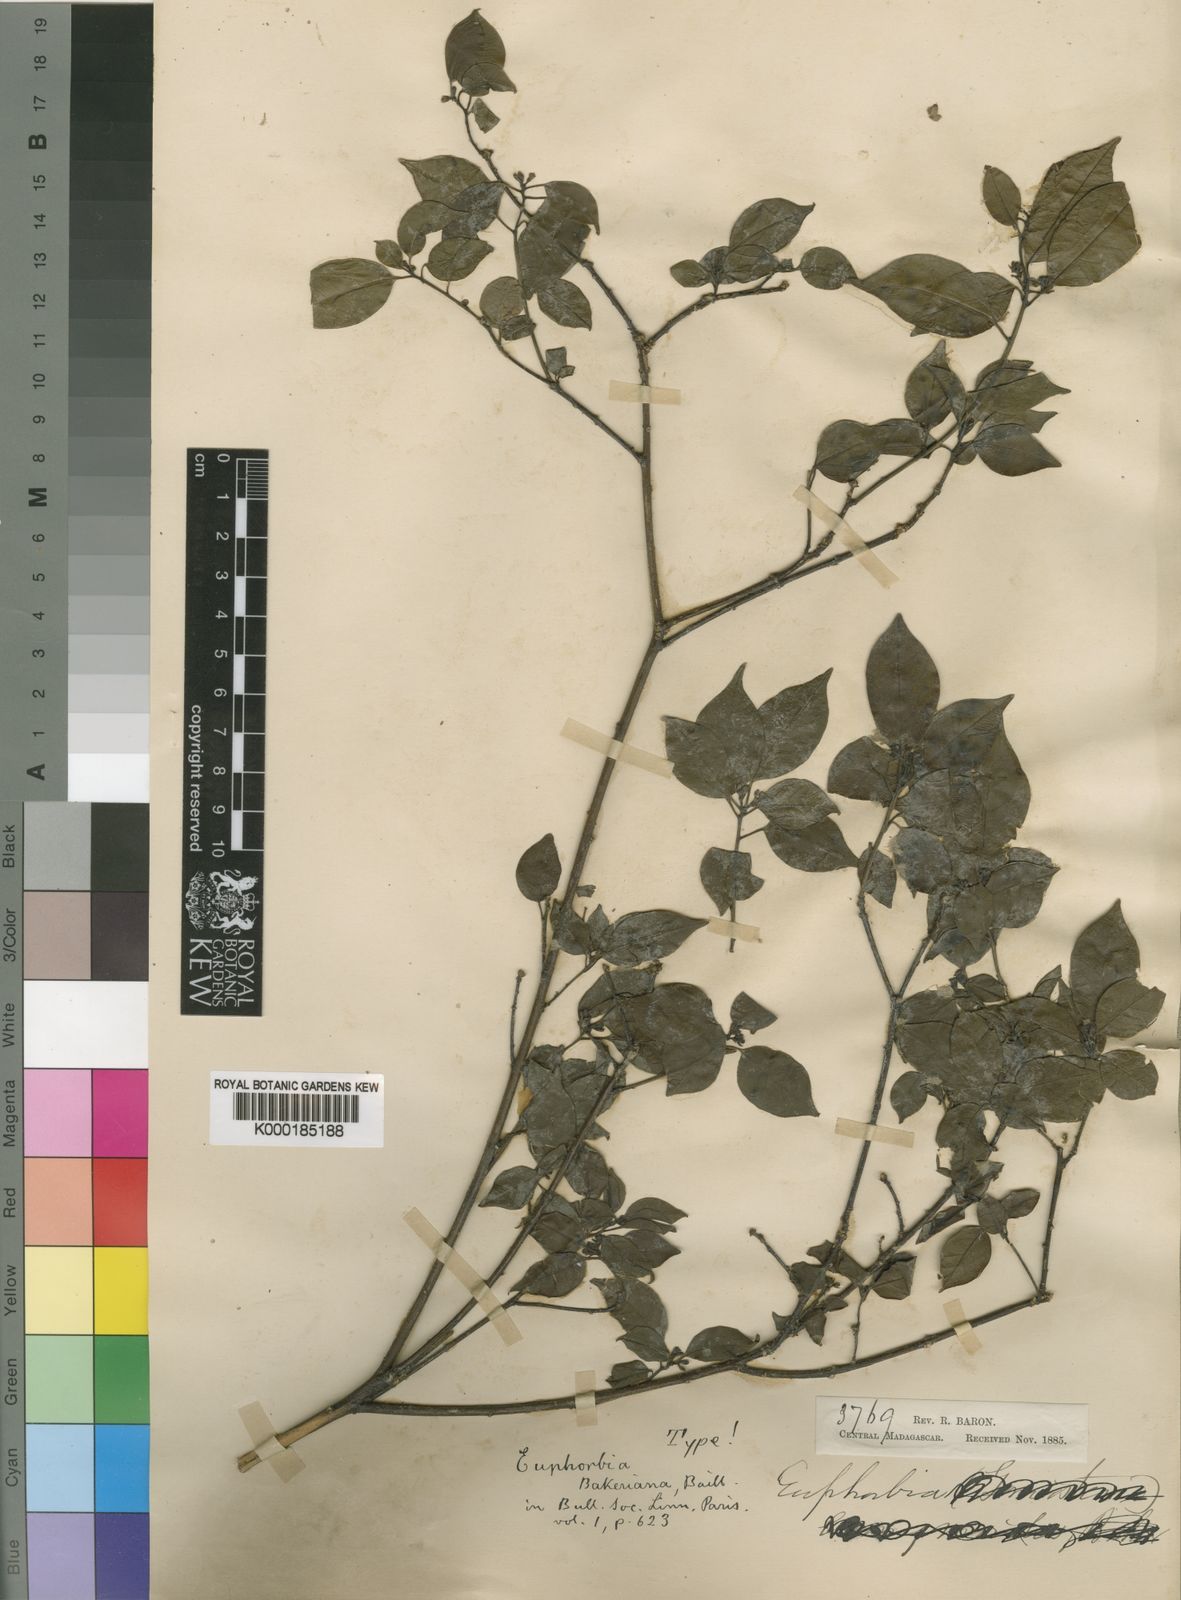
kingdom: Plantae
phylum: Tracheophyta
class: Magnoliopsida
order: Malpighiales
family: Euphorbiaceae
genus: Euphorbia
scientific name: Euphorbia tetraptera
